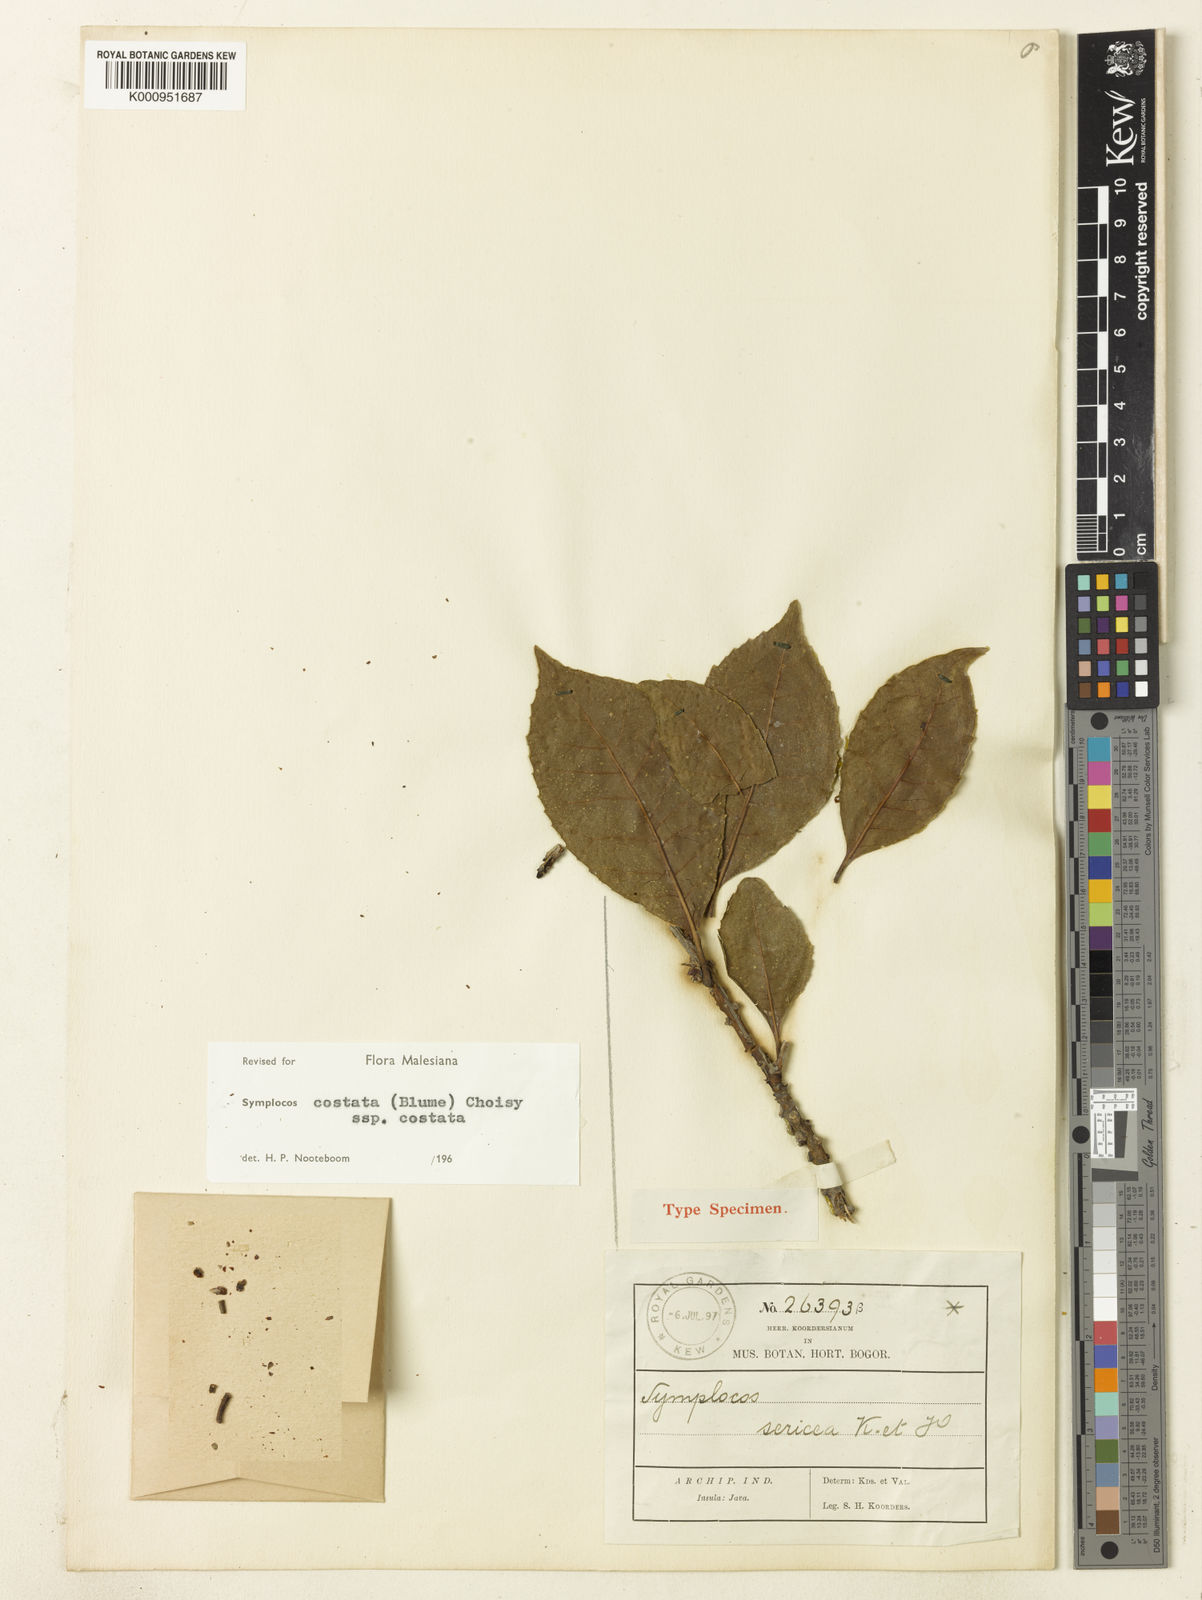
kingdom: Plantae
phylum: Tracheophyta
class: Magnoliopsida
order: Ericales
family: Symplocaceae
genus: Symplocos
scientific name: Symplocos costata
